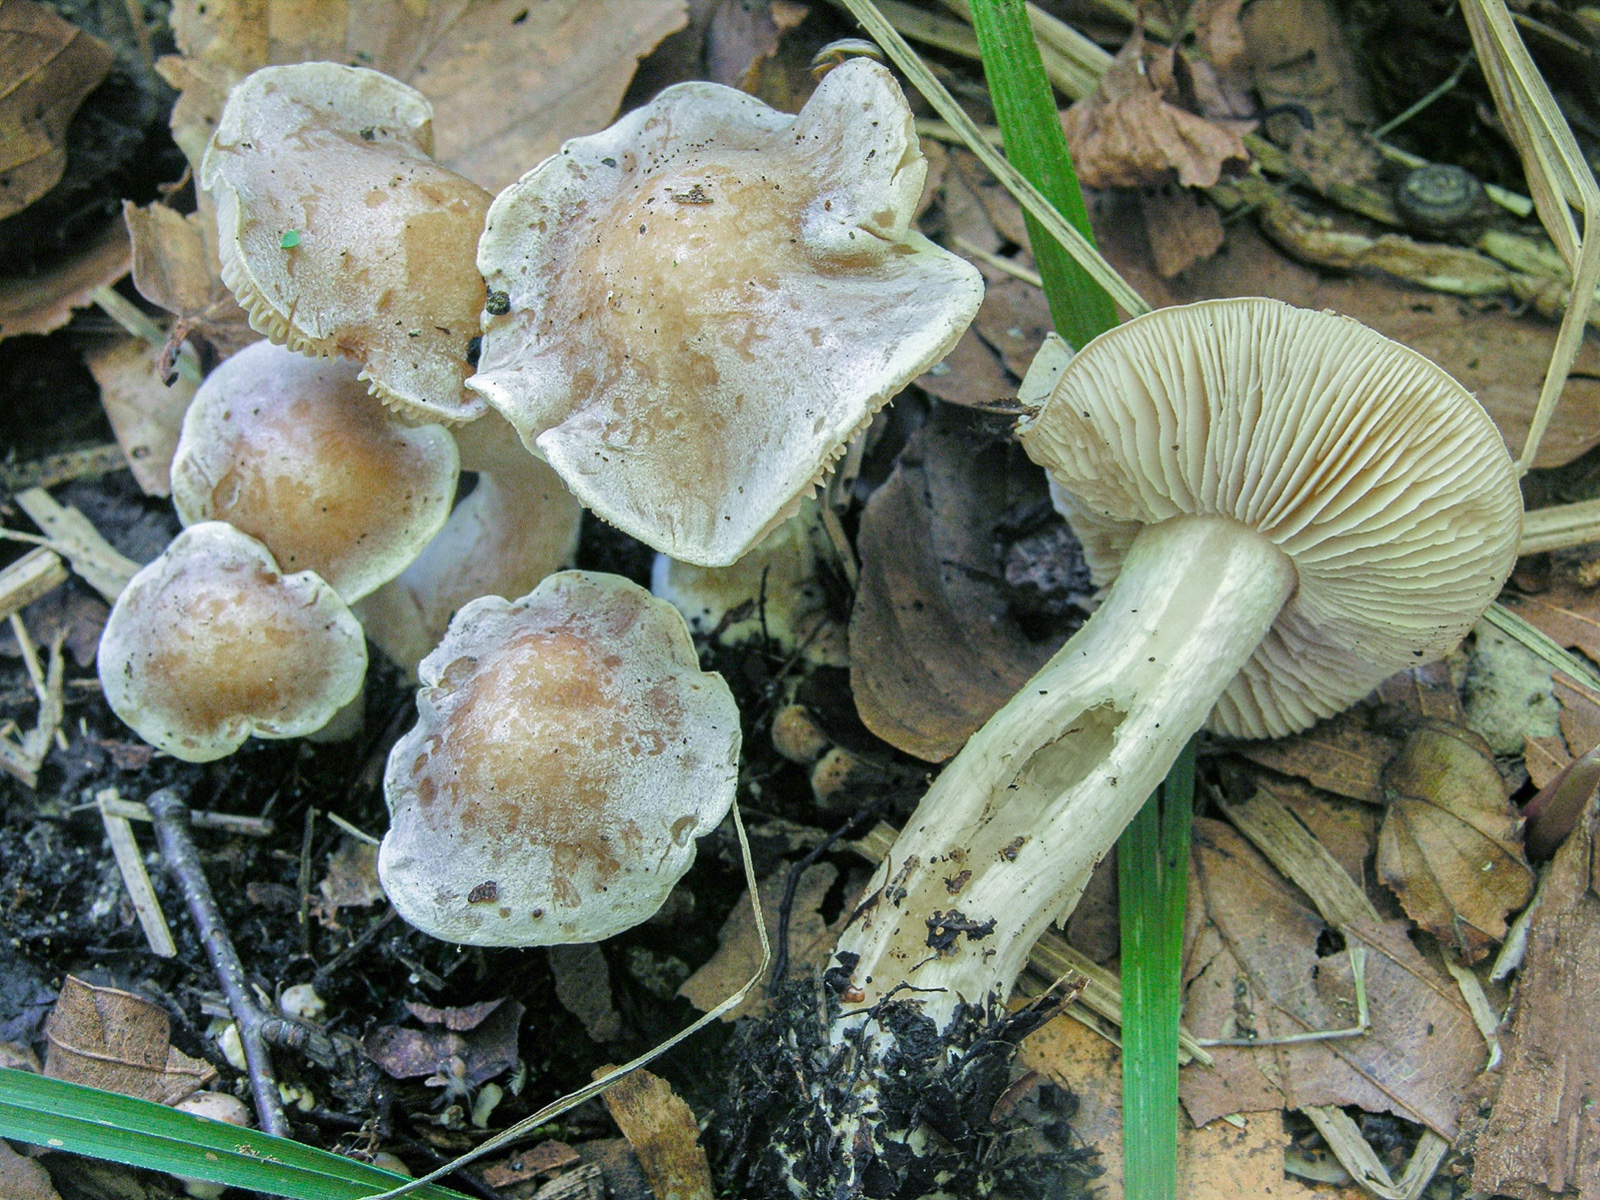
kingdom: Fungi
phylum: Basidiomycota
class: Agaricomycetes
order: Agaricales
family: Hymenogastraceae
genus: Hebeloma
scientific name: Hebeloma erebium
